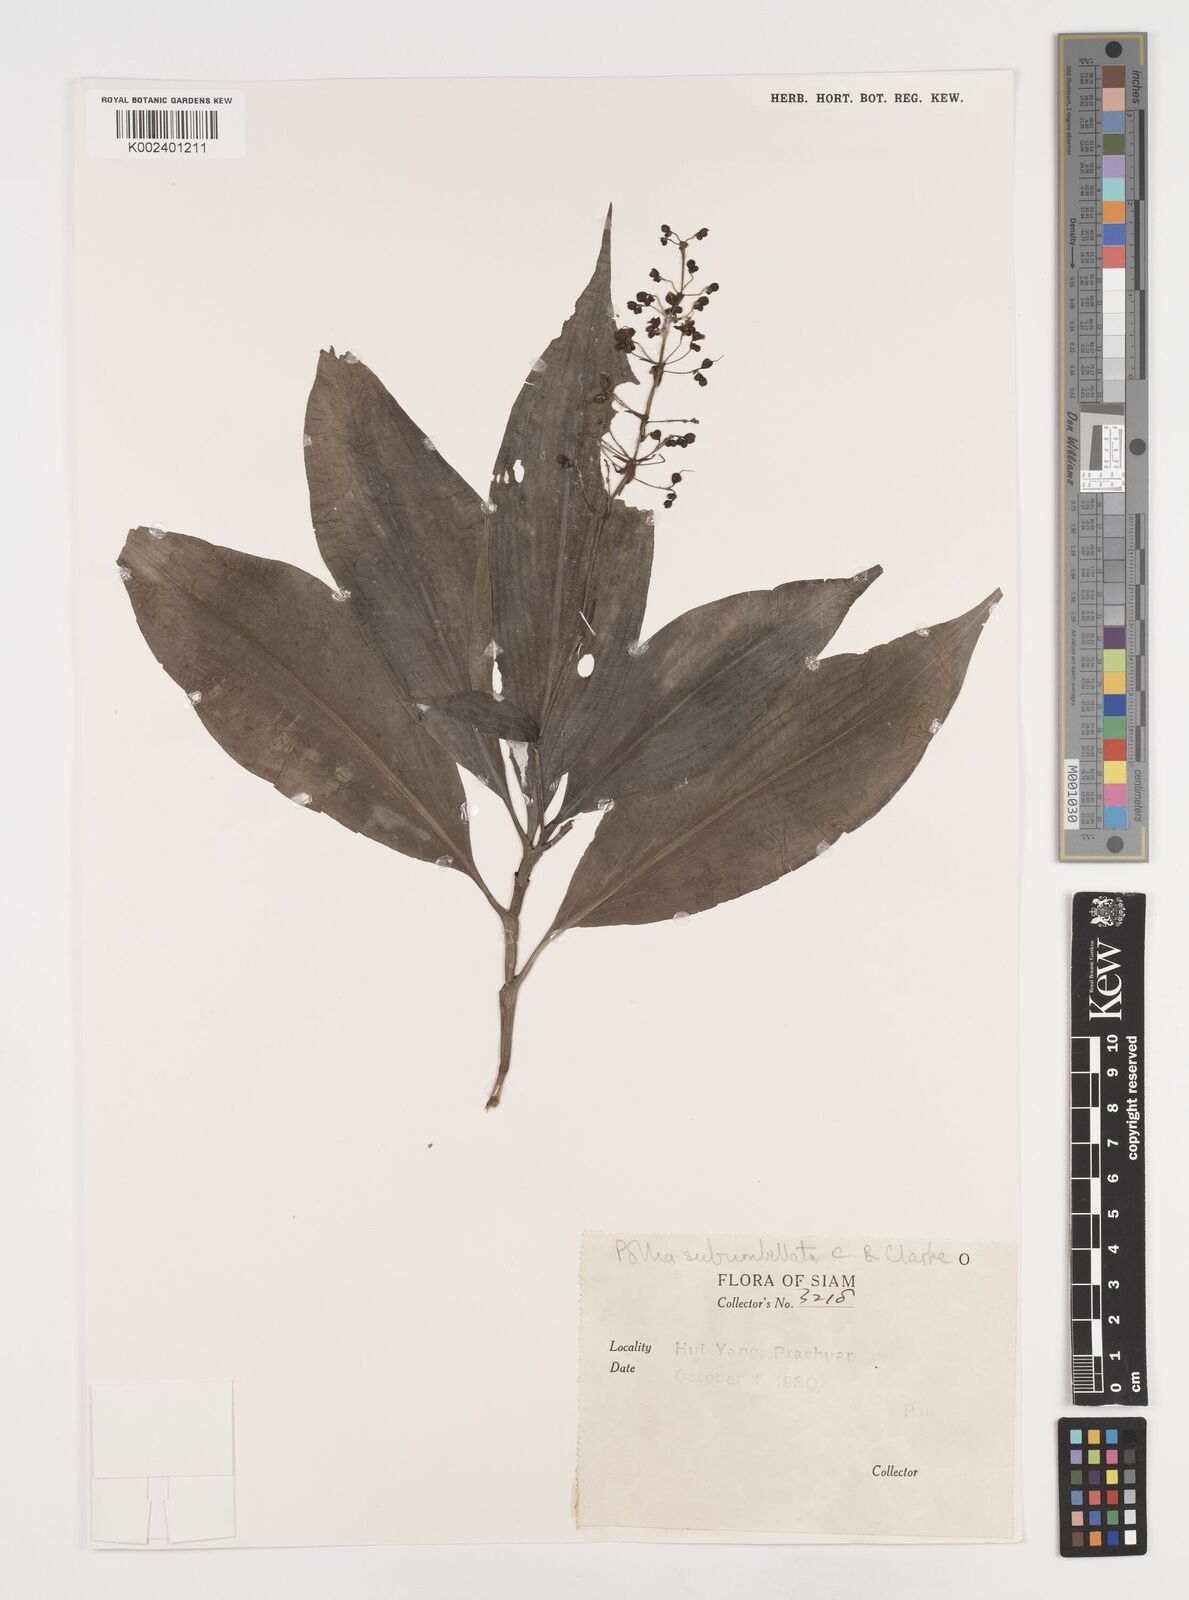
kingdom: Plantae
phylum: Tracheophyta
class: Liliopsida
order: Commelinales
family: Commelinaceae
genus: Pollia
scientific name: Pollia secundiflora
